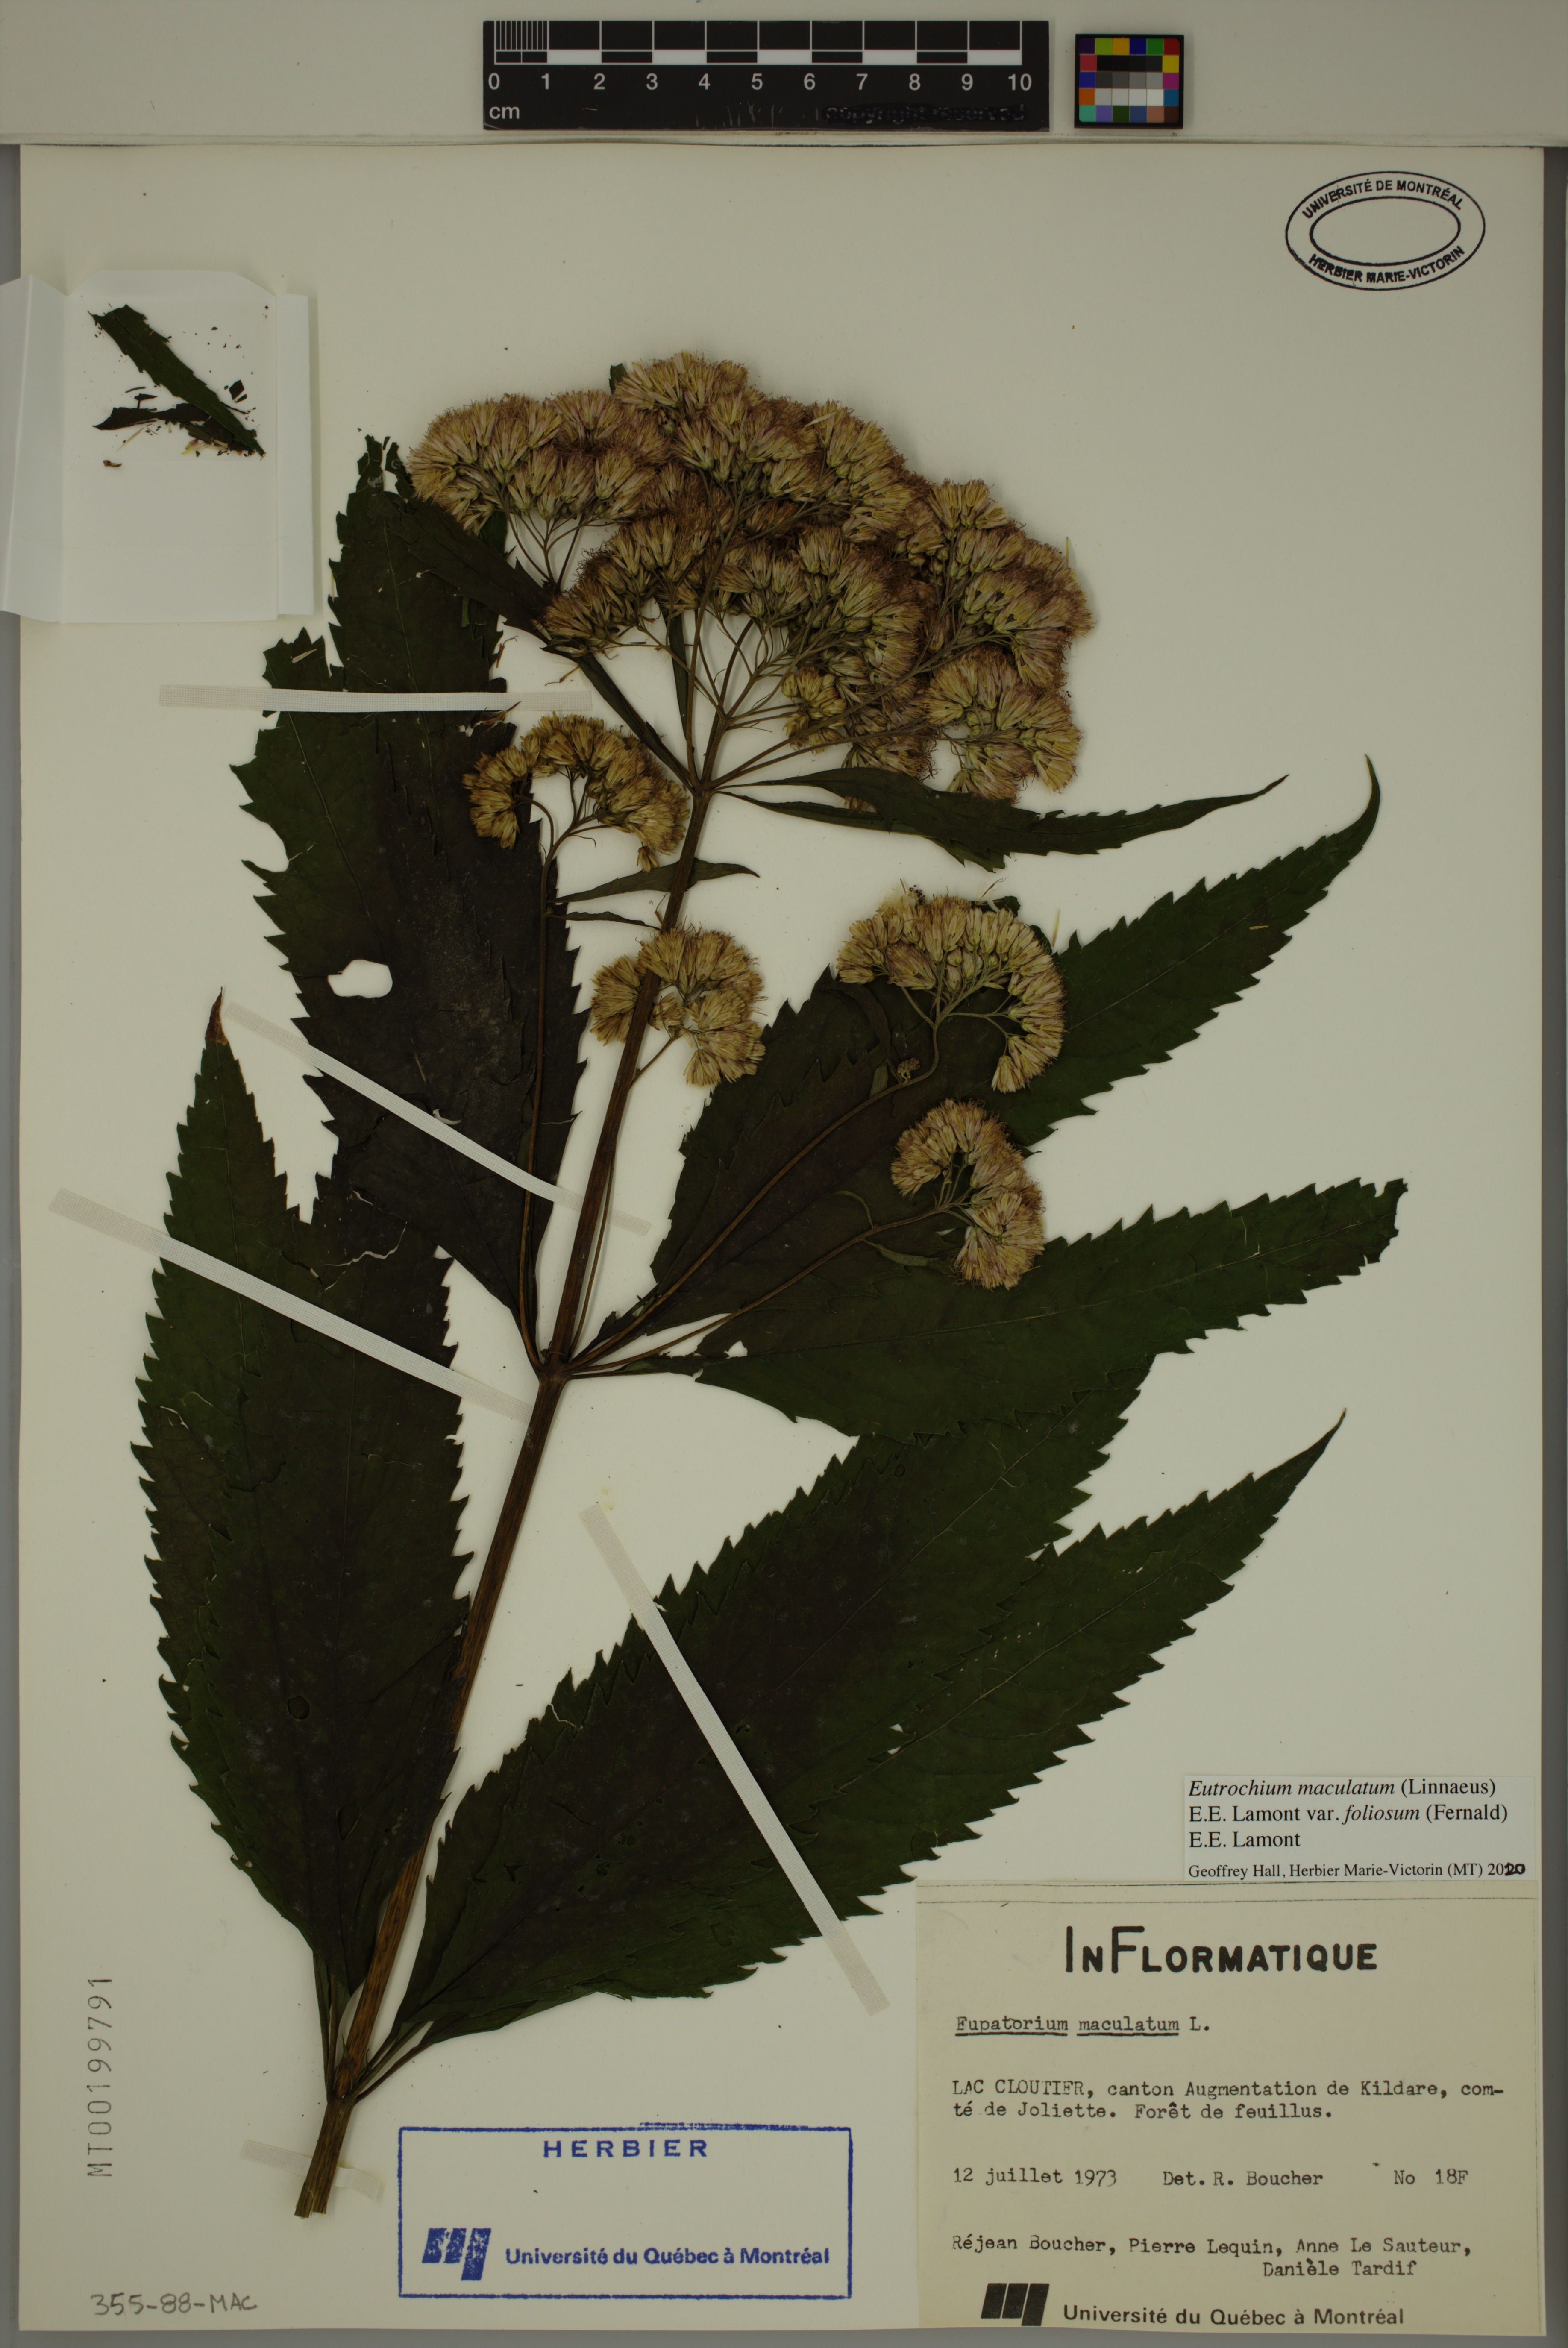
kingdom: Plantae
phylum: Tracheophyta
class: Magnoliopsida
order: Asterales
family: Asteraceae
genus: Eutrochium
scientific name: Eutrochium maculatum
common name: Spotted joe pye weed
